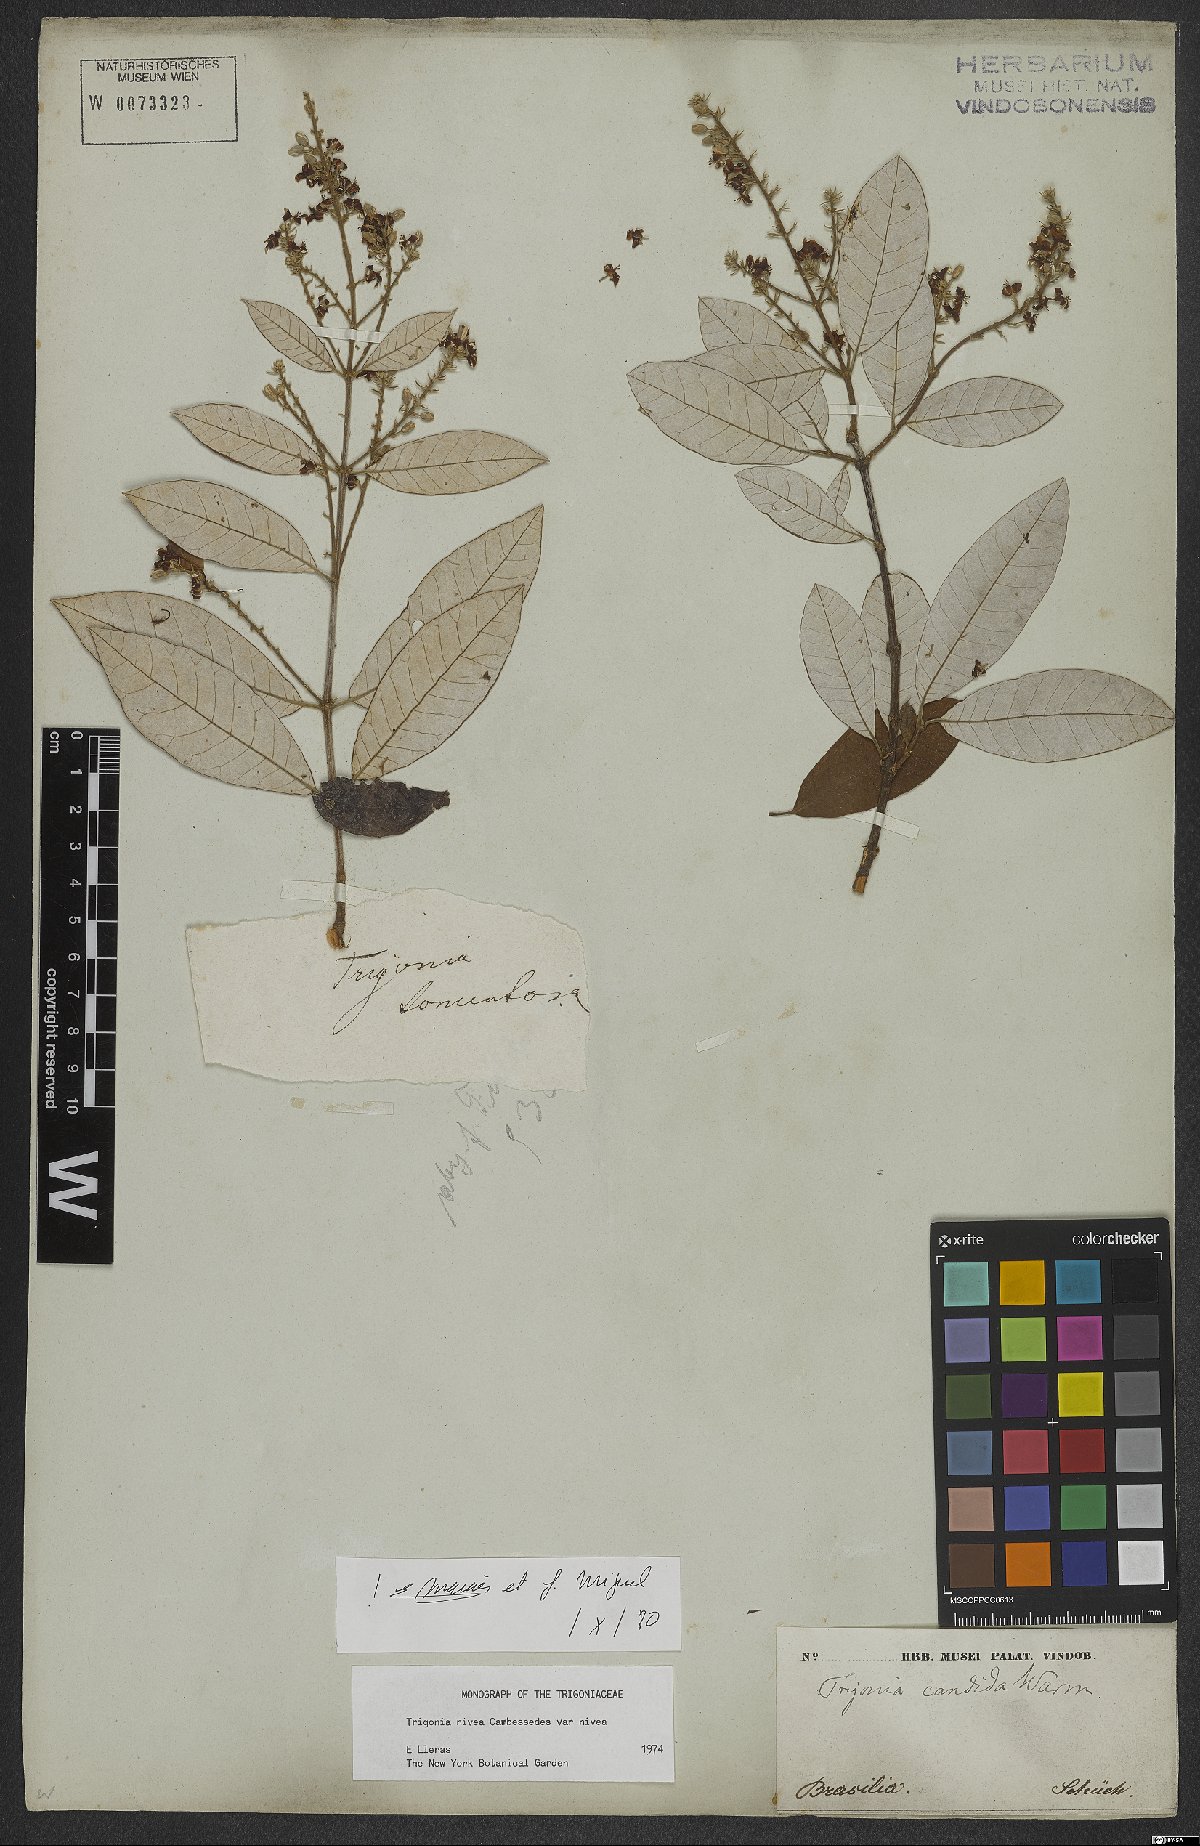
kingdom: Plantae
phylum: Tracheophyta
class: Magnoliopsida
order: Malpighiales
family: Trigoniaceae
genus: Trigonia
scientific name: Trigonia nivea
